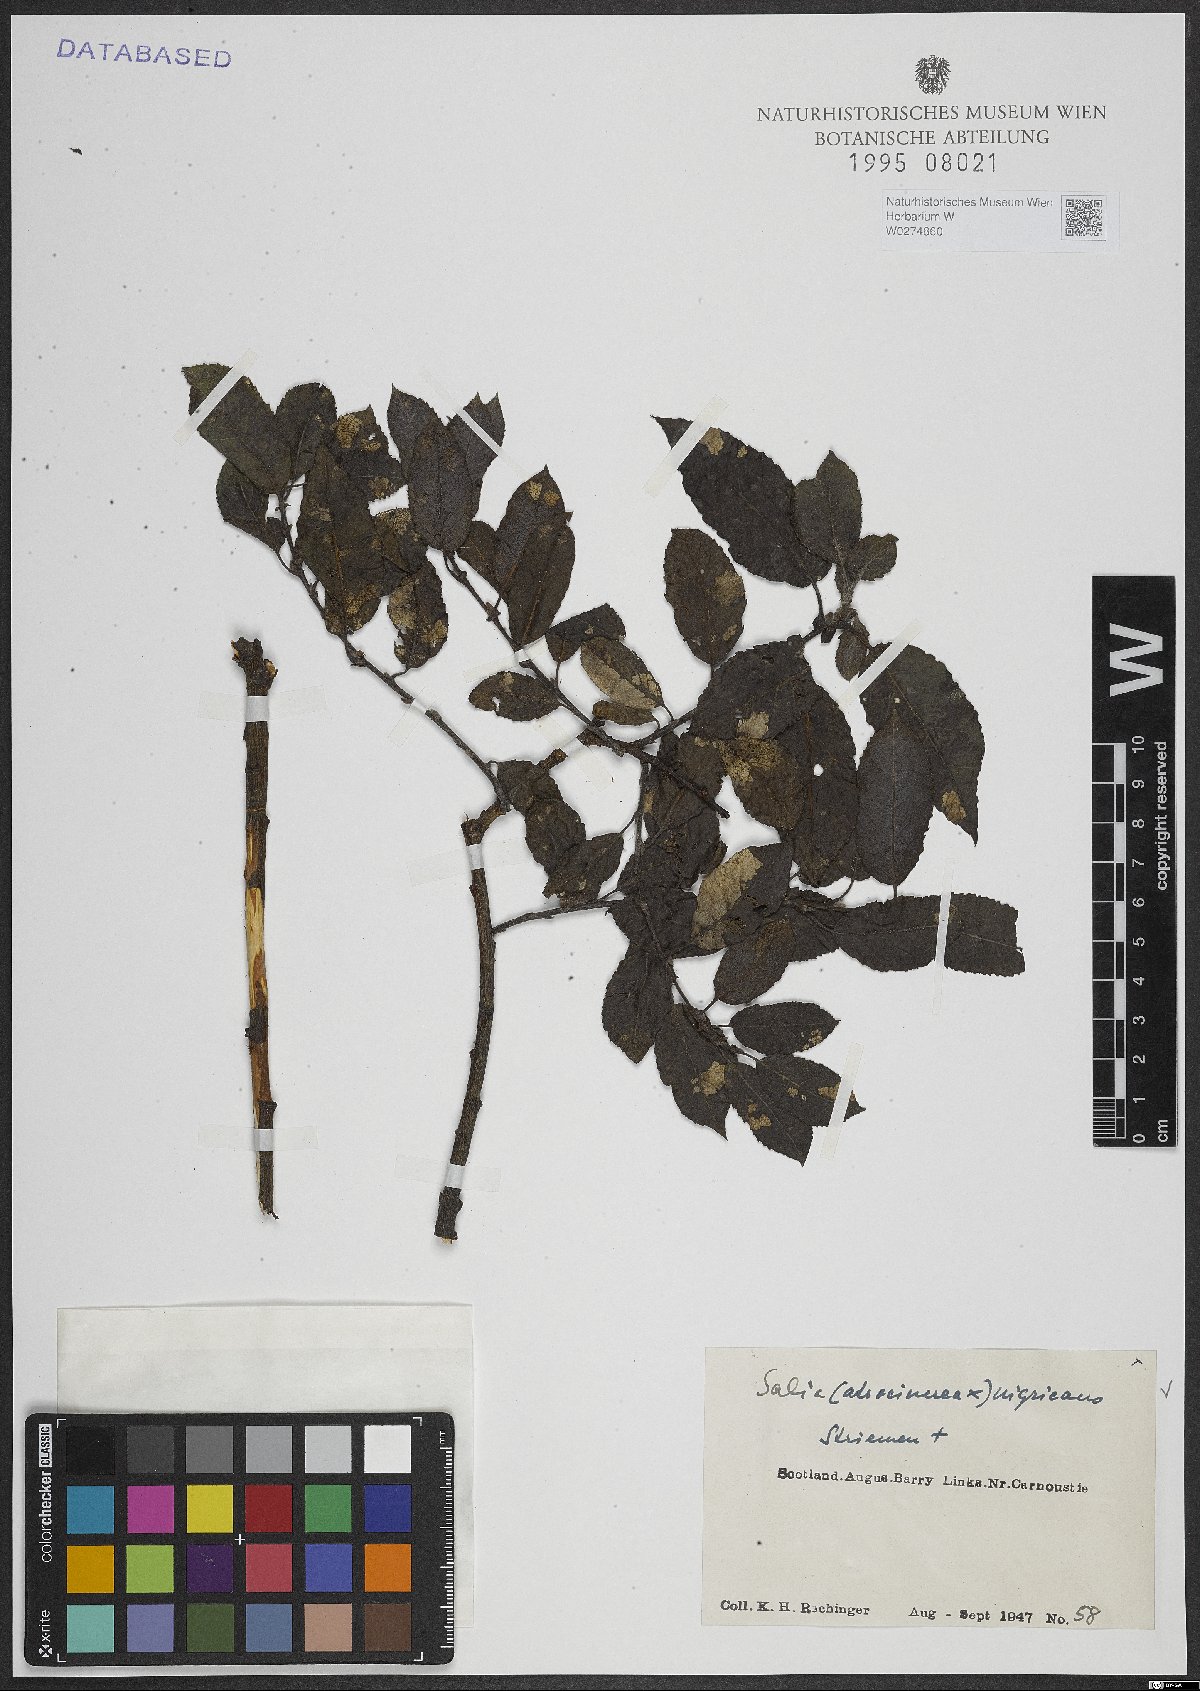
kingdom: Plantae
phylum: Tracheophyta
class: Magnoliopsida
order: Malpighiales
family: Salicaceae
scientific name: Salicaceae
